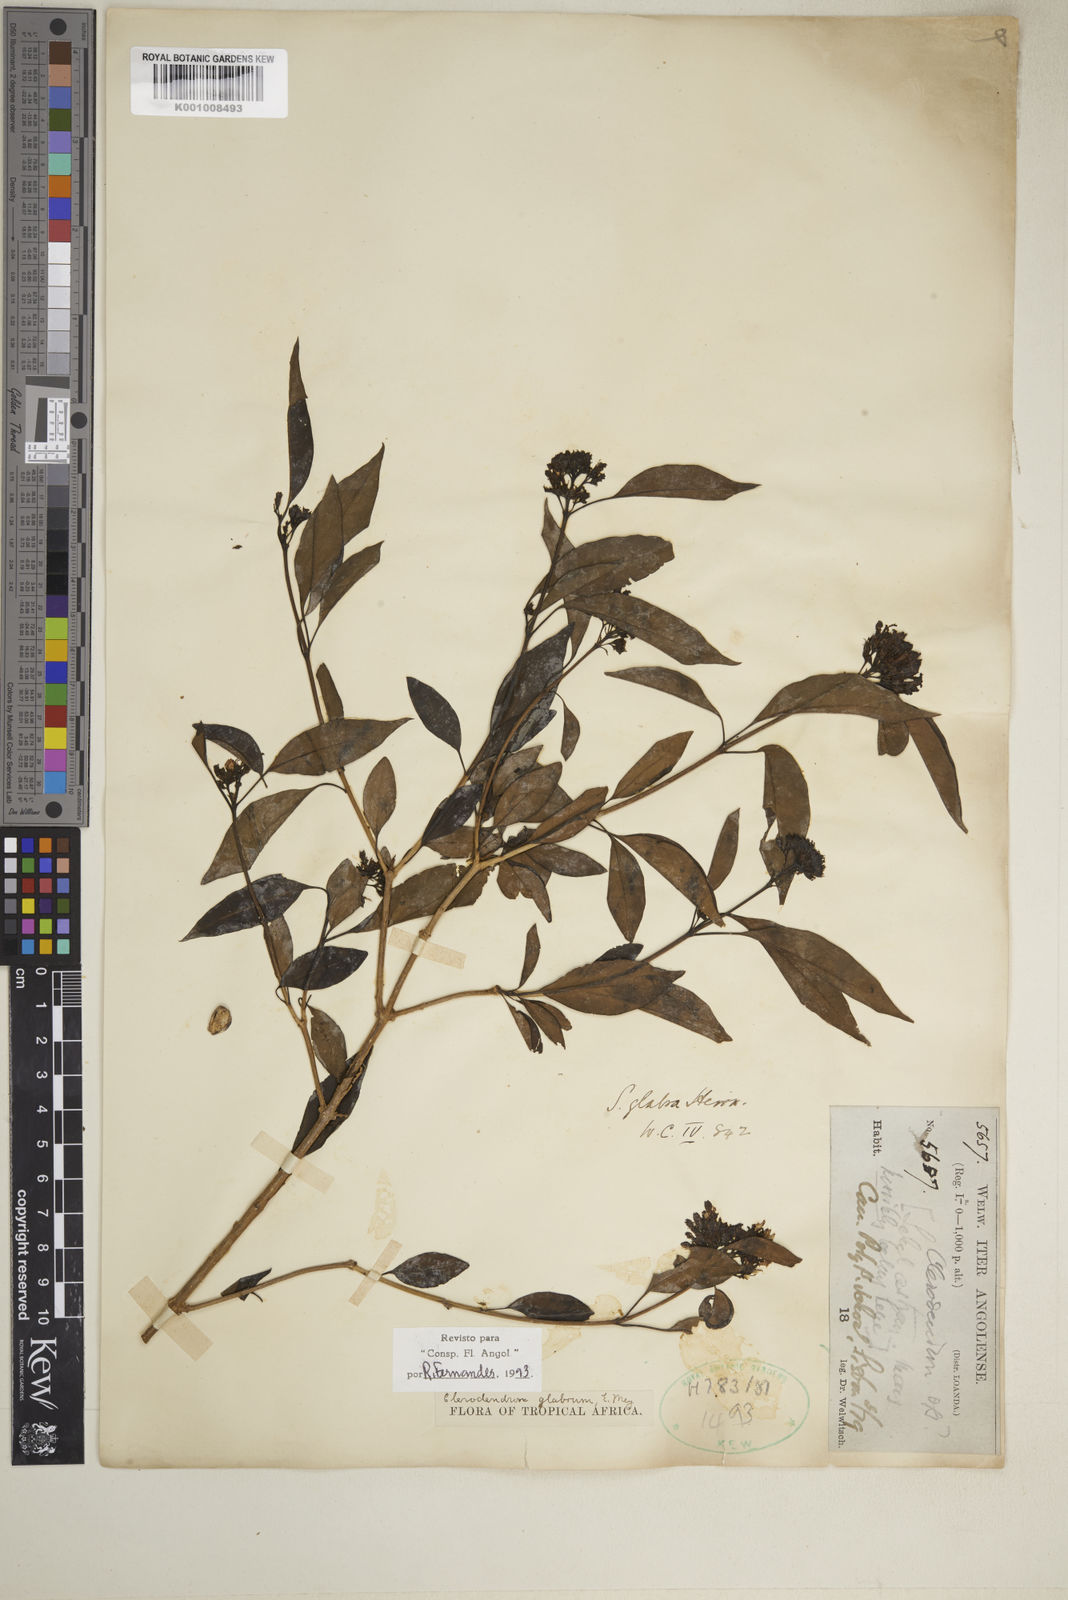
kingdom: Plantae
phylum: Tracheophyta
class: Magnoliopsida
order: Lamiales
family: Lamiaceae
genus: Volkameria
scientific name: Volkameria glabra
